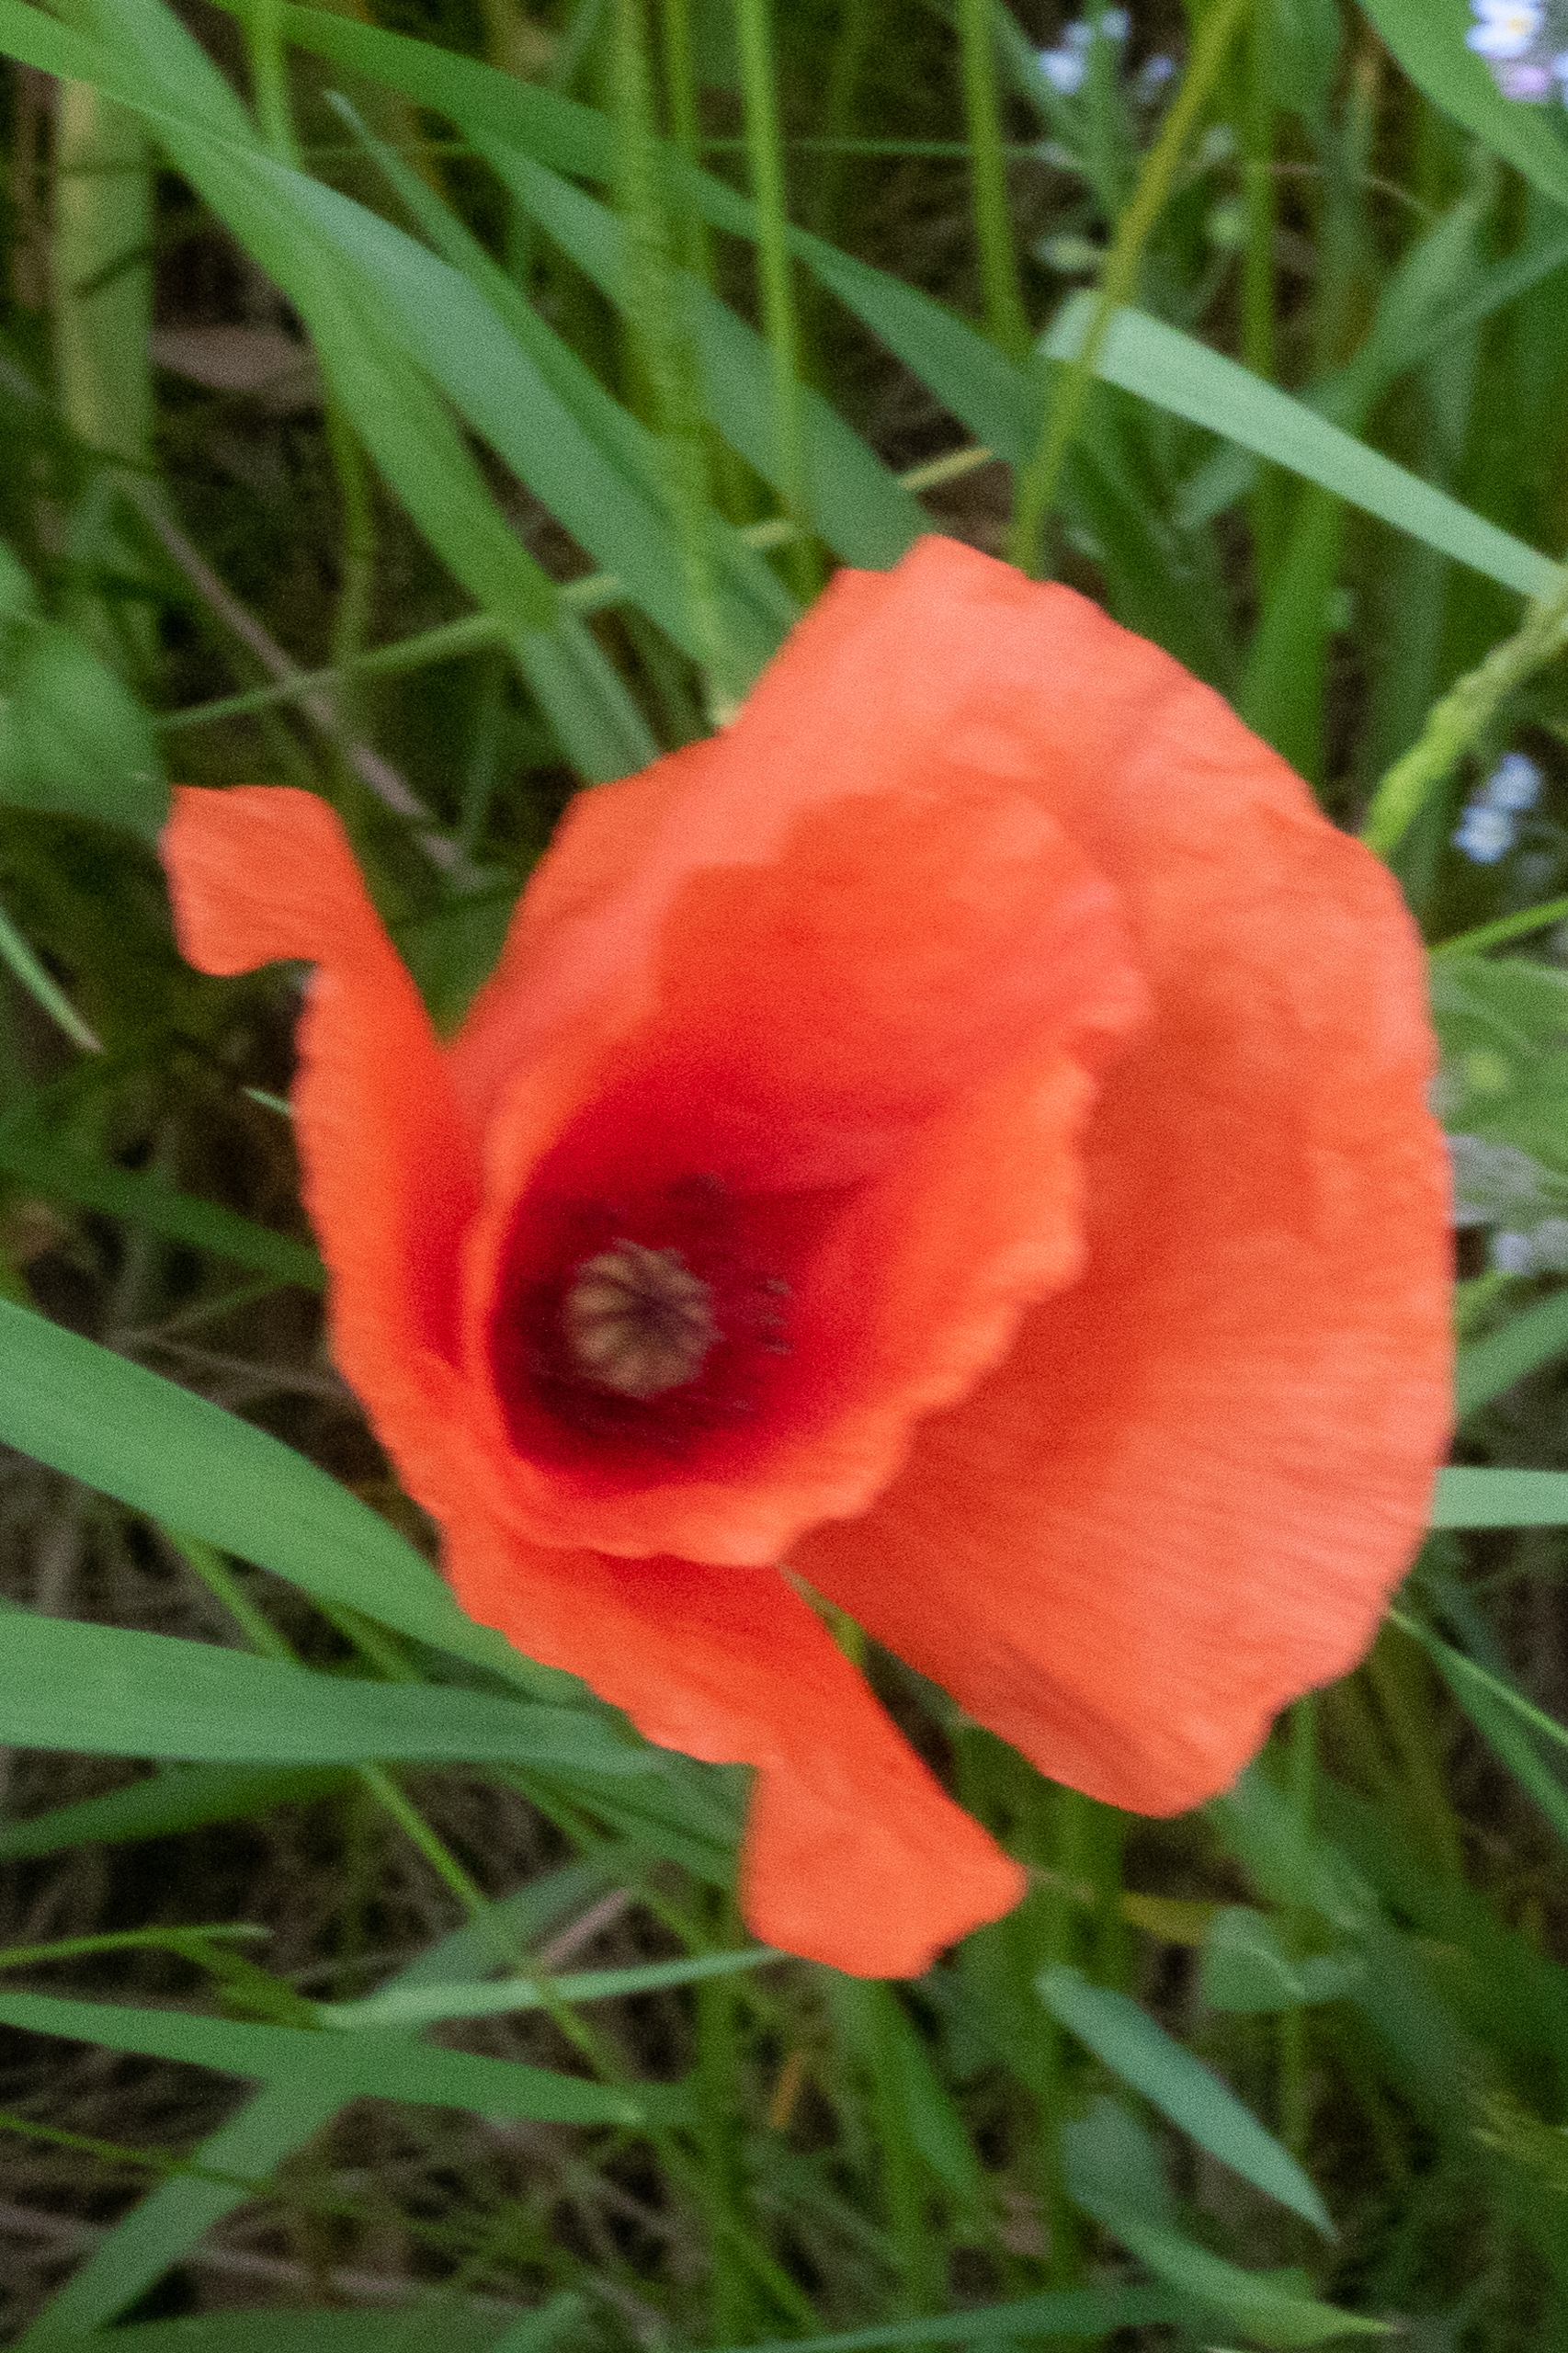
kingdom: Plantae
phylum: Tracheophyta
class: Magnoliopsida
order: Ranunculales
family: Papaveraceae
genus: Papaver
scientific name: Papaver dubium
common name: Gærde-valmue
